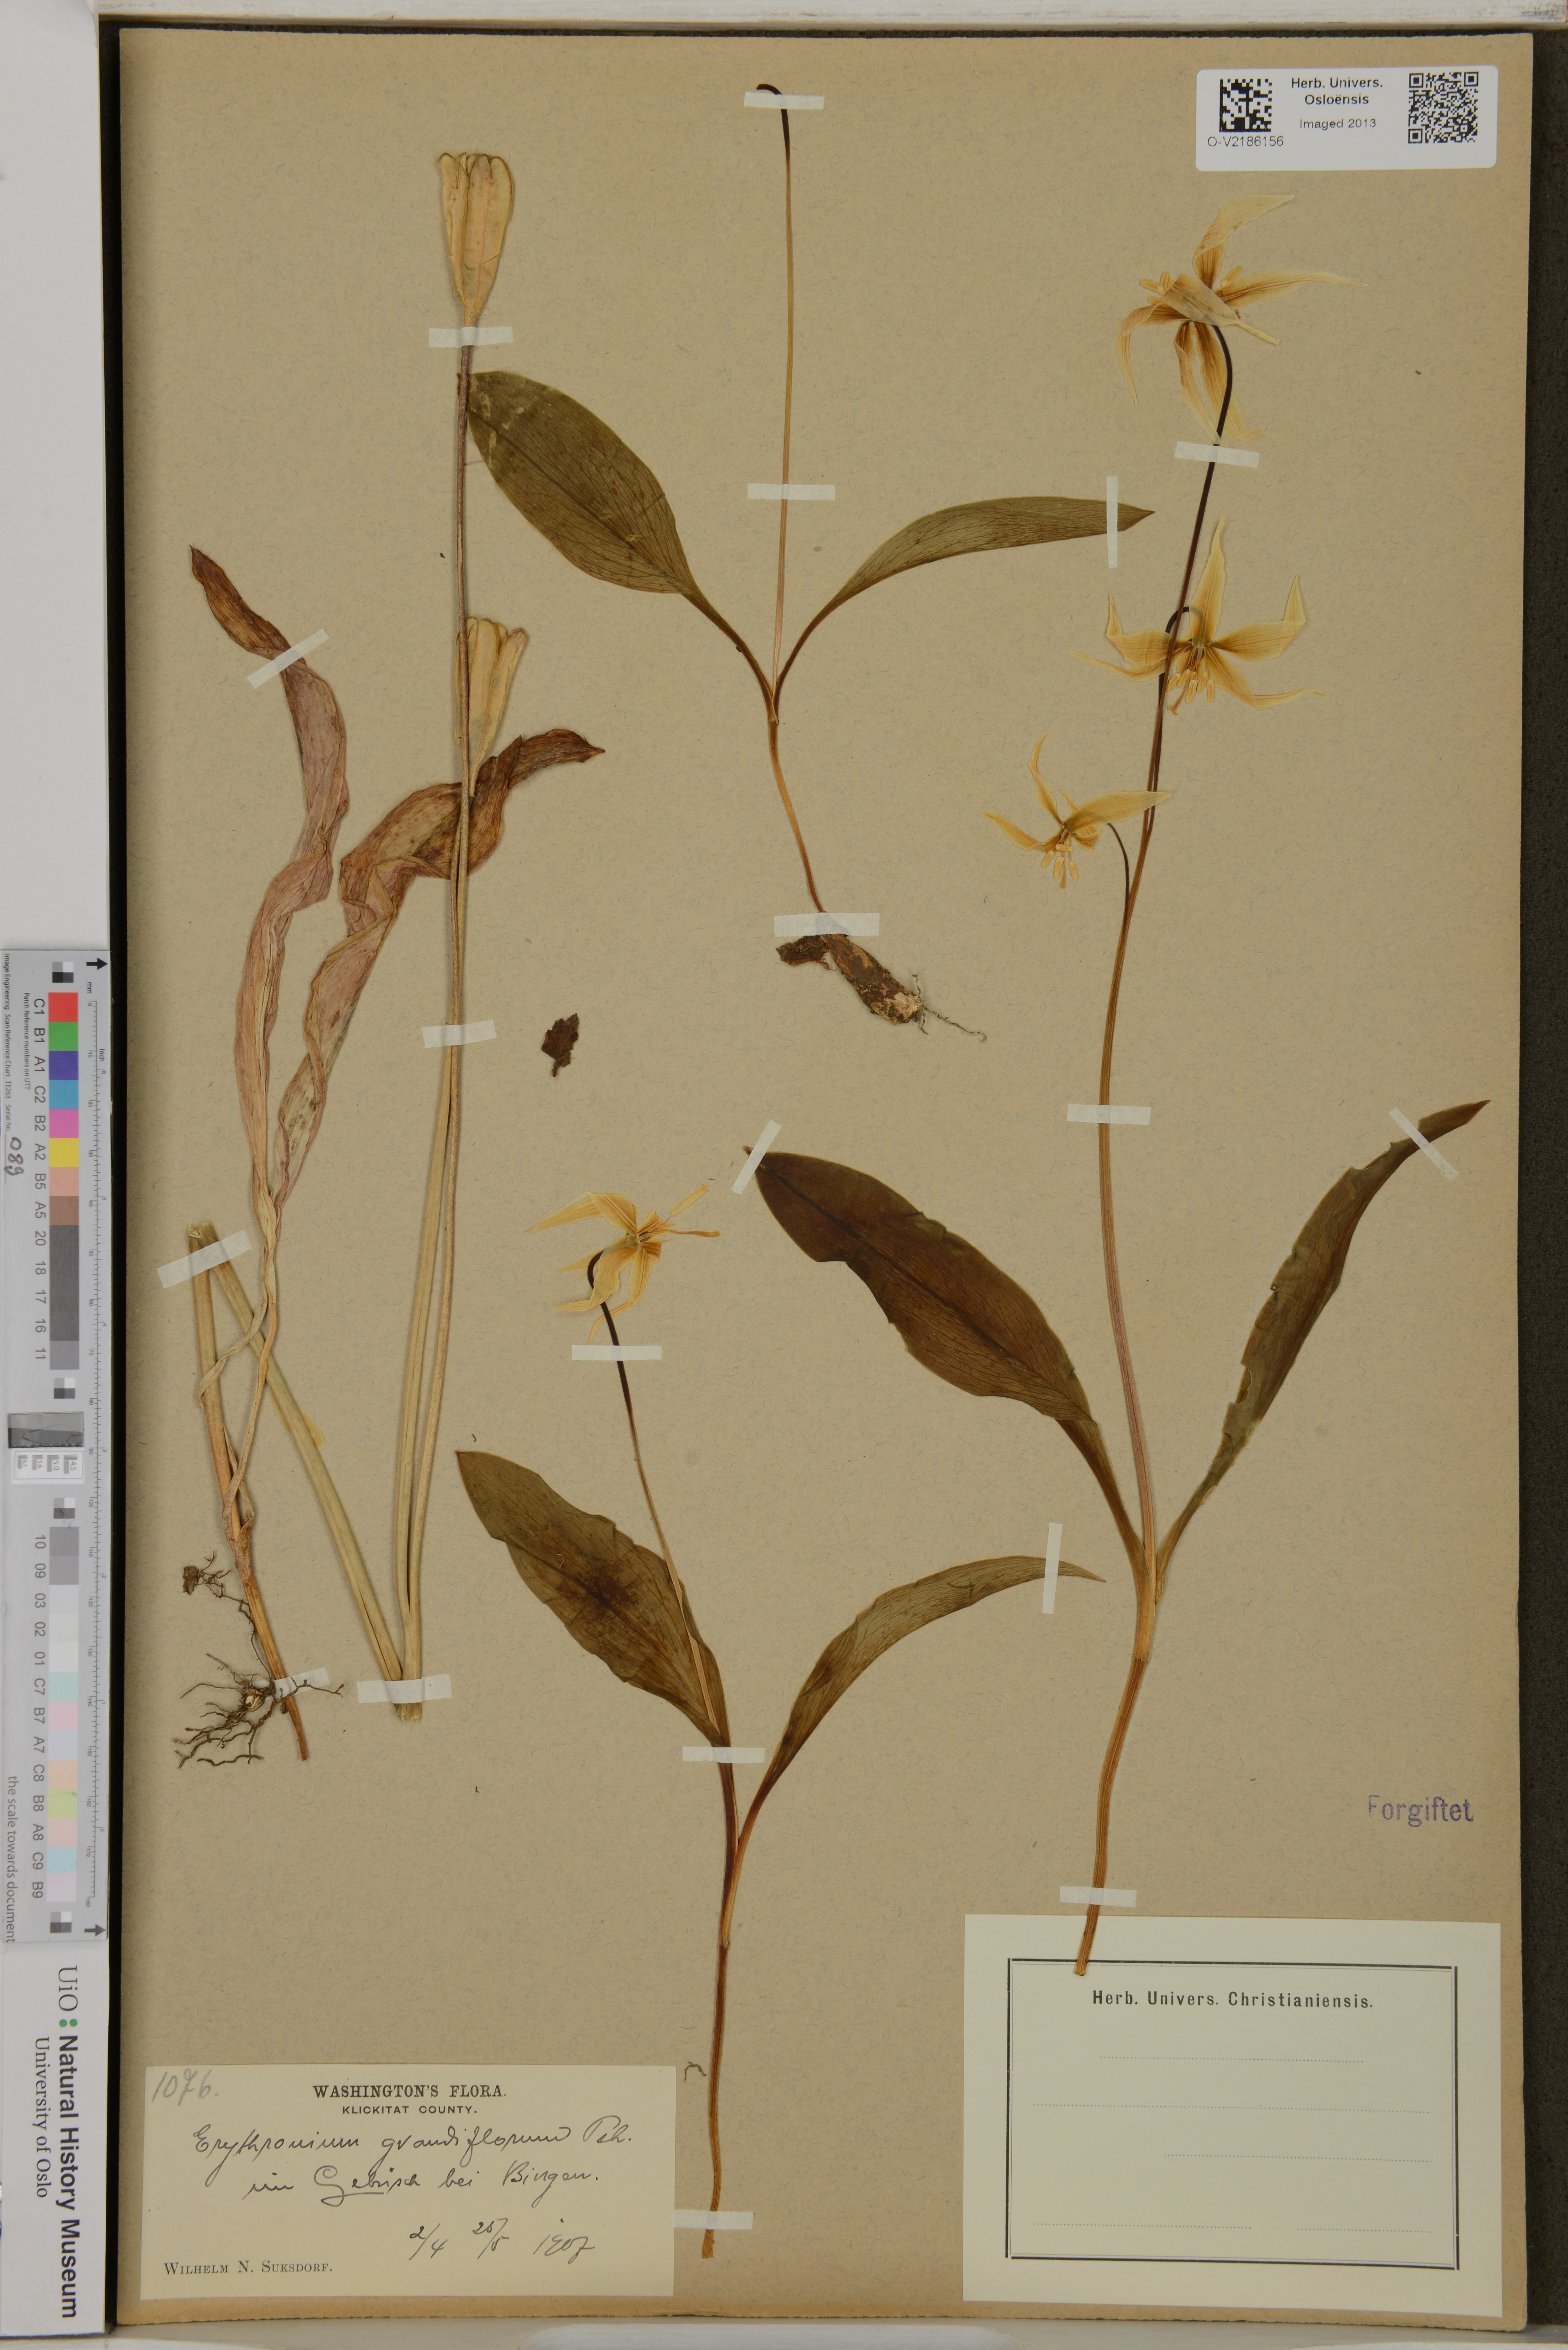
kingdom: Plantae
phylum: Tracheophyta
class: Liliopsida
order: Liliales
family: Liliaceae
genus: Erythronium
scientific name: Erythronium grandiflorum
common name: Avalanche-lily
